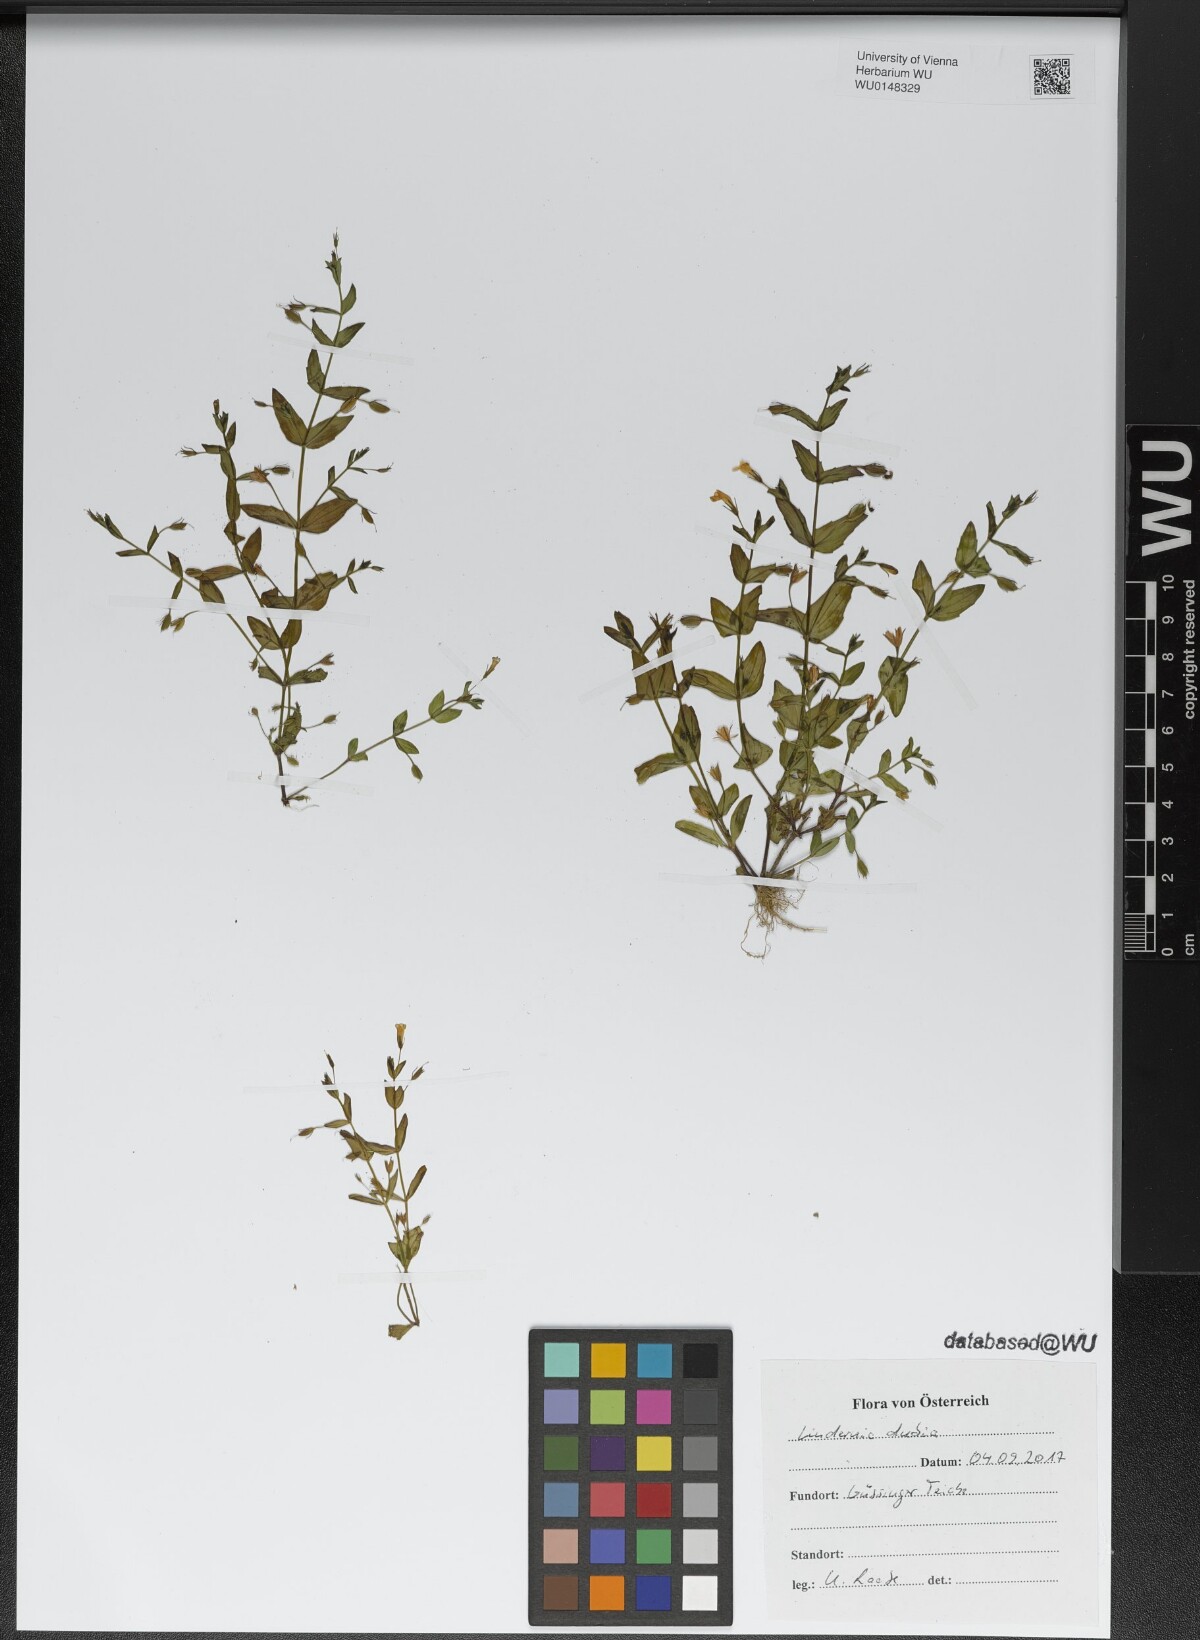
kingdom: Plantae
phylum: Tracheophyta
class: Magnoliopsida
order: Lamiales
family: Linderniaceae
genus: Lindernia
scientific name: Lindernia dubia
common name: Annual false pimpernel
